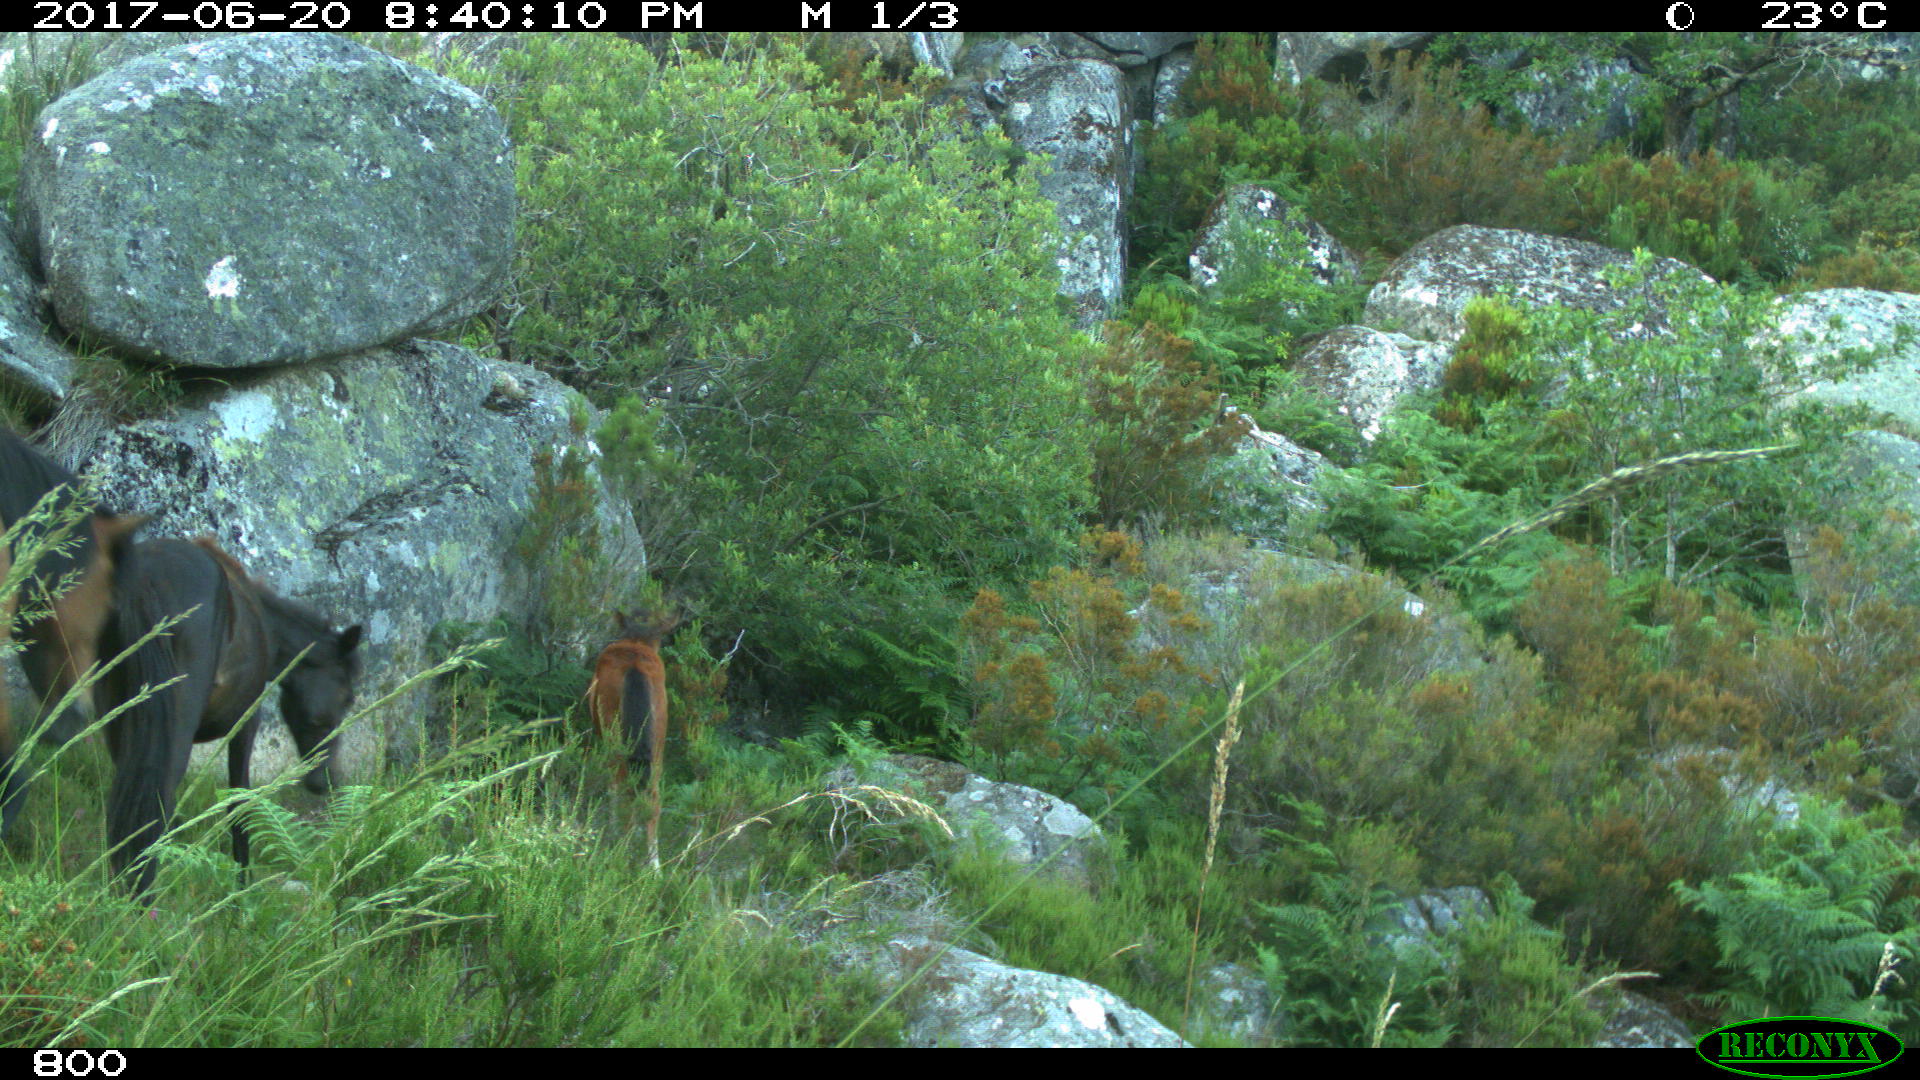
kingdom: Animalia
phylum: Chordata
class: Mammalia
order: Perissodactyla
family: Equidae
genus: Equus
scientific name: Equus caballus
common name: Horse
